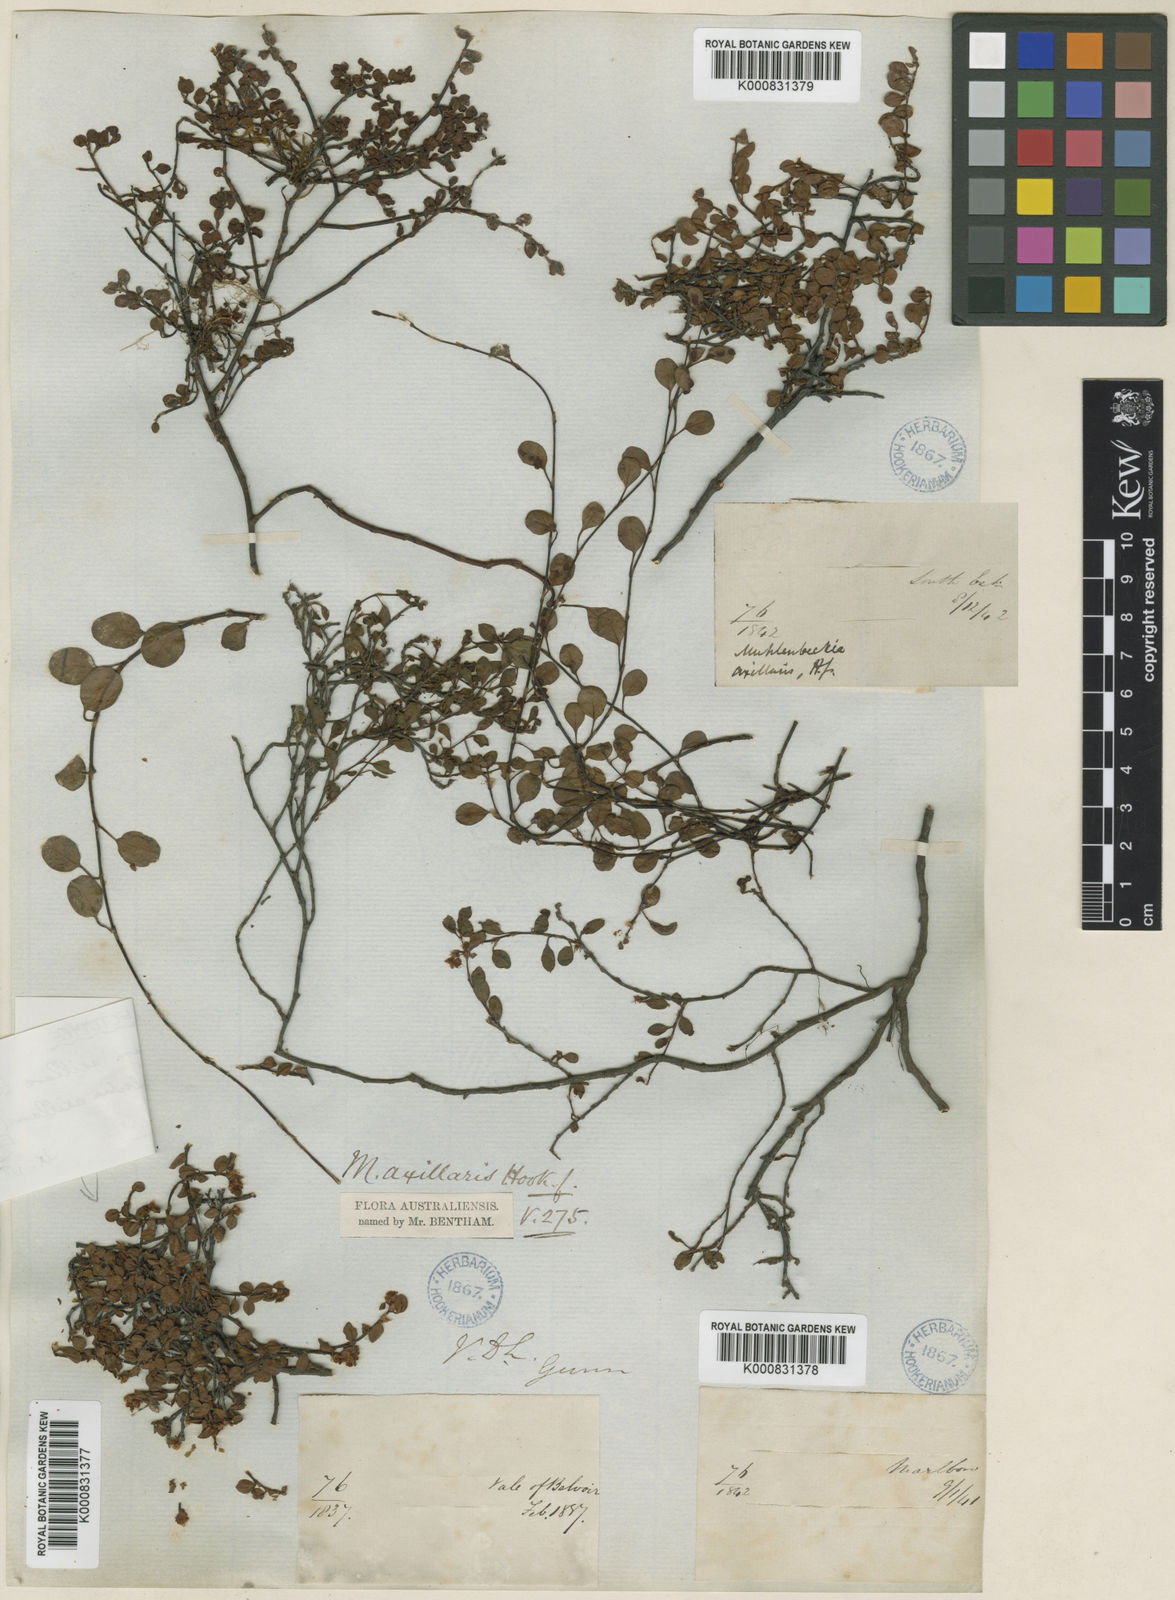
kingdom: Plantae
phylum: Tracheophyta
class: Magnoliopsida
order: Caryophyllales
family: Polygonaceae
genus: Muehlenbeckia
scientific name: Muehlenbeckia axillaris
